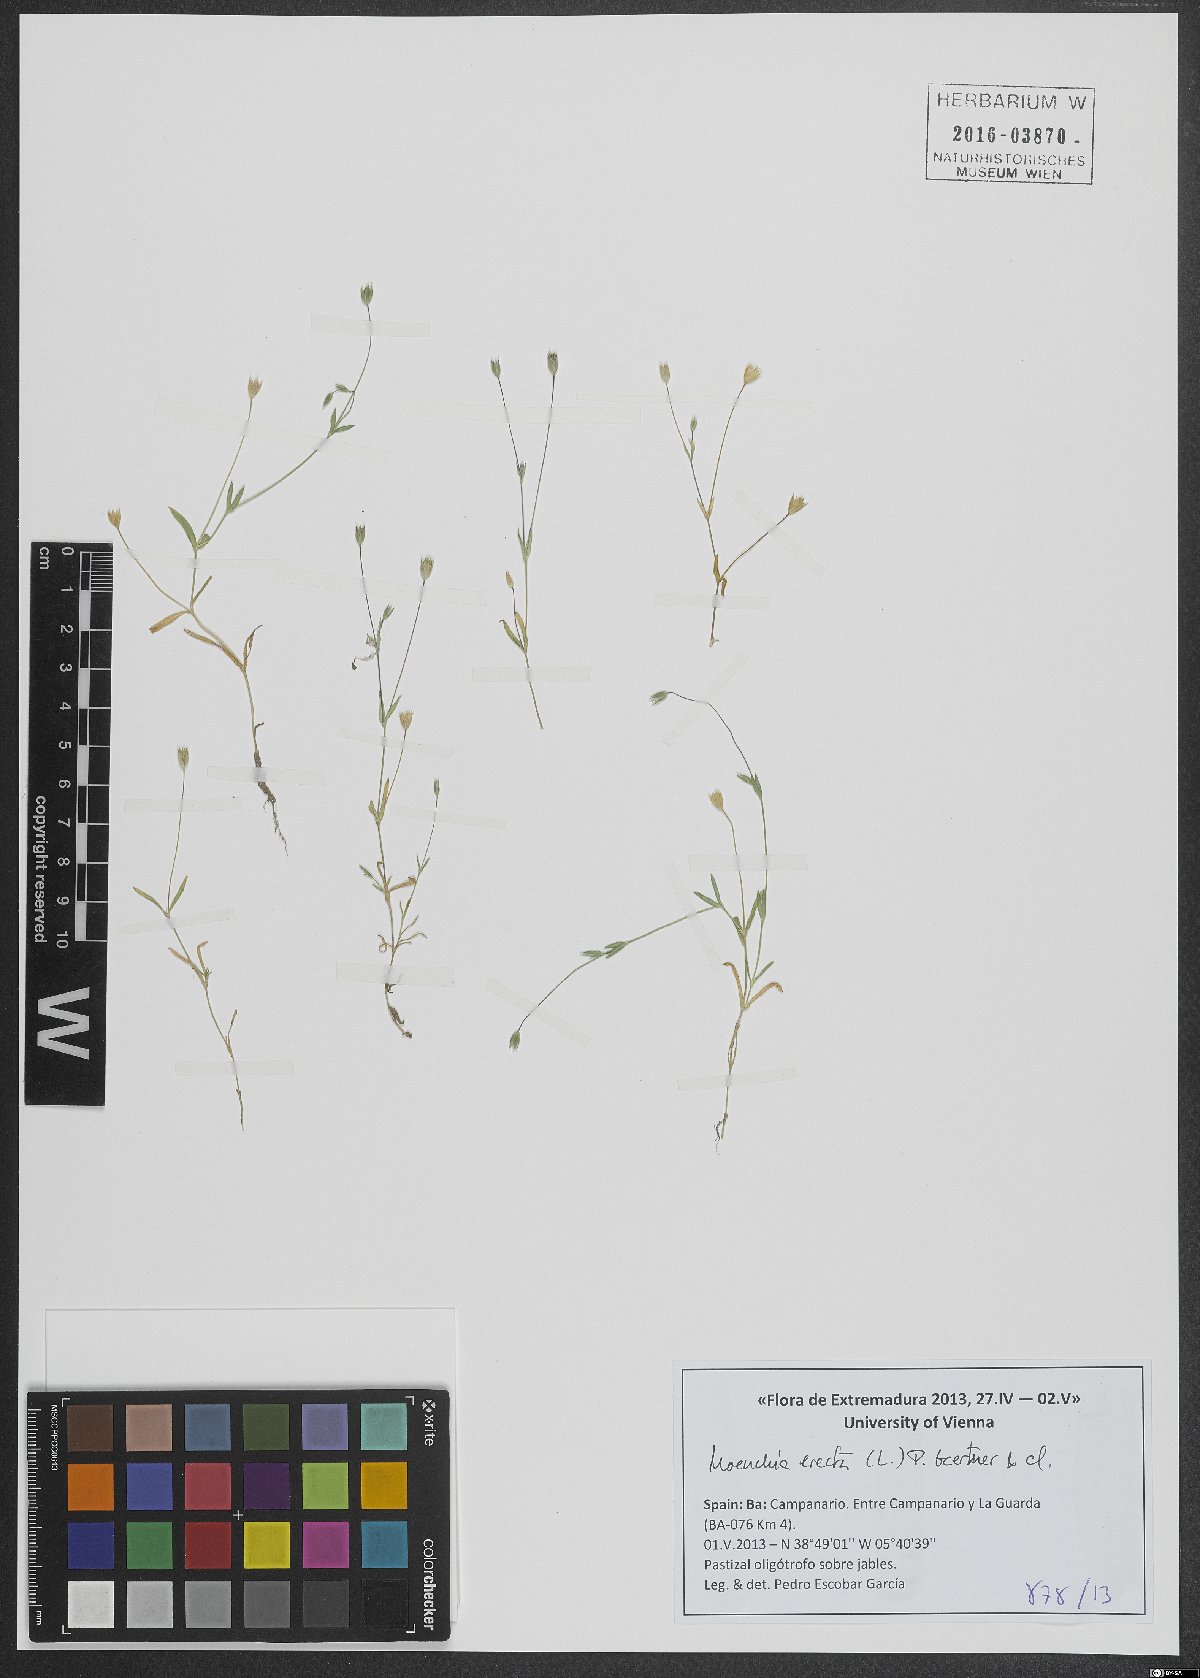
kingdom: Plantae
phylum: Tracheophyta
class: Magnoliopsida
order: Caryophyllales
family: Caryophyllaceae
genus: Moenchia
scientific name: Moenchia erecta
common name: Upright chickweed
